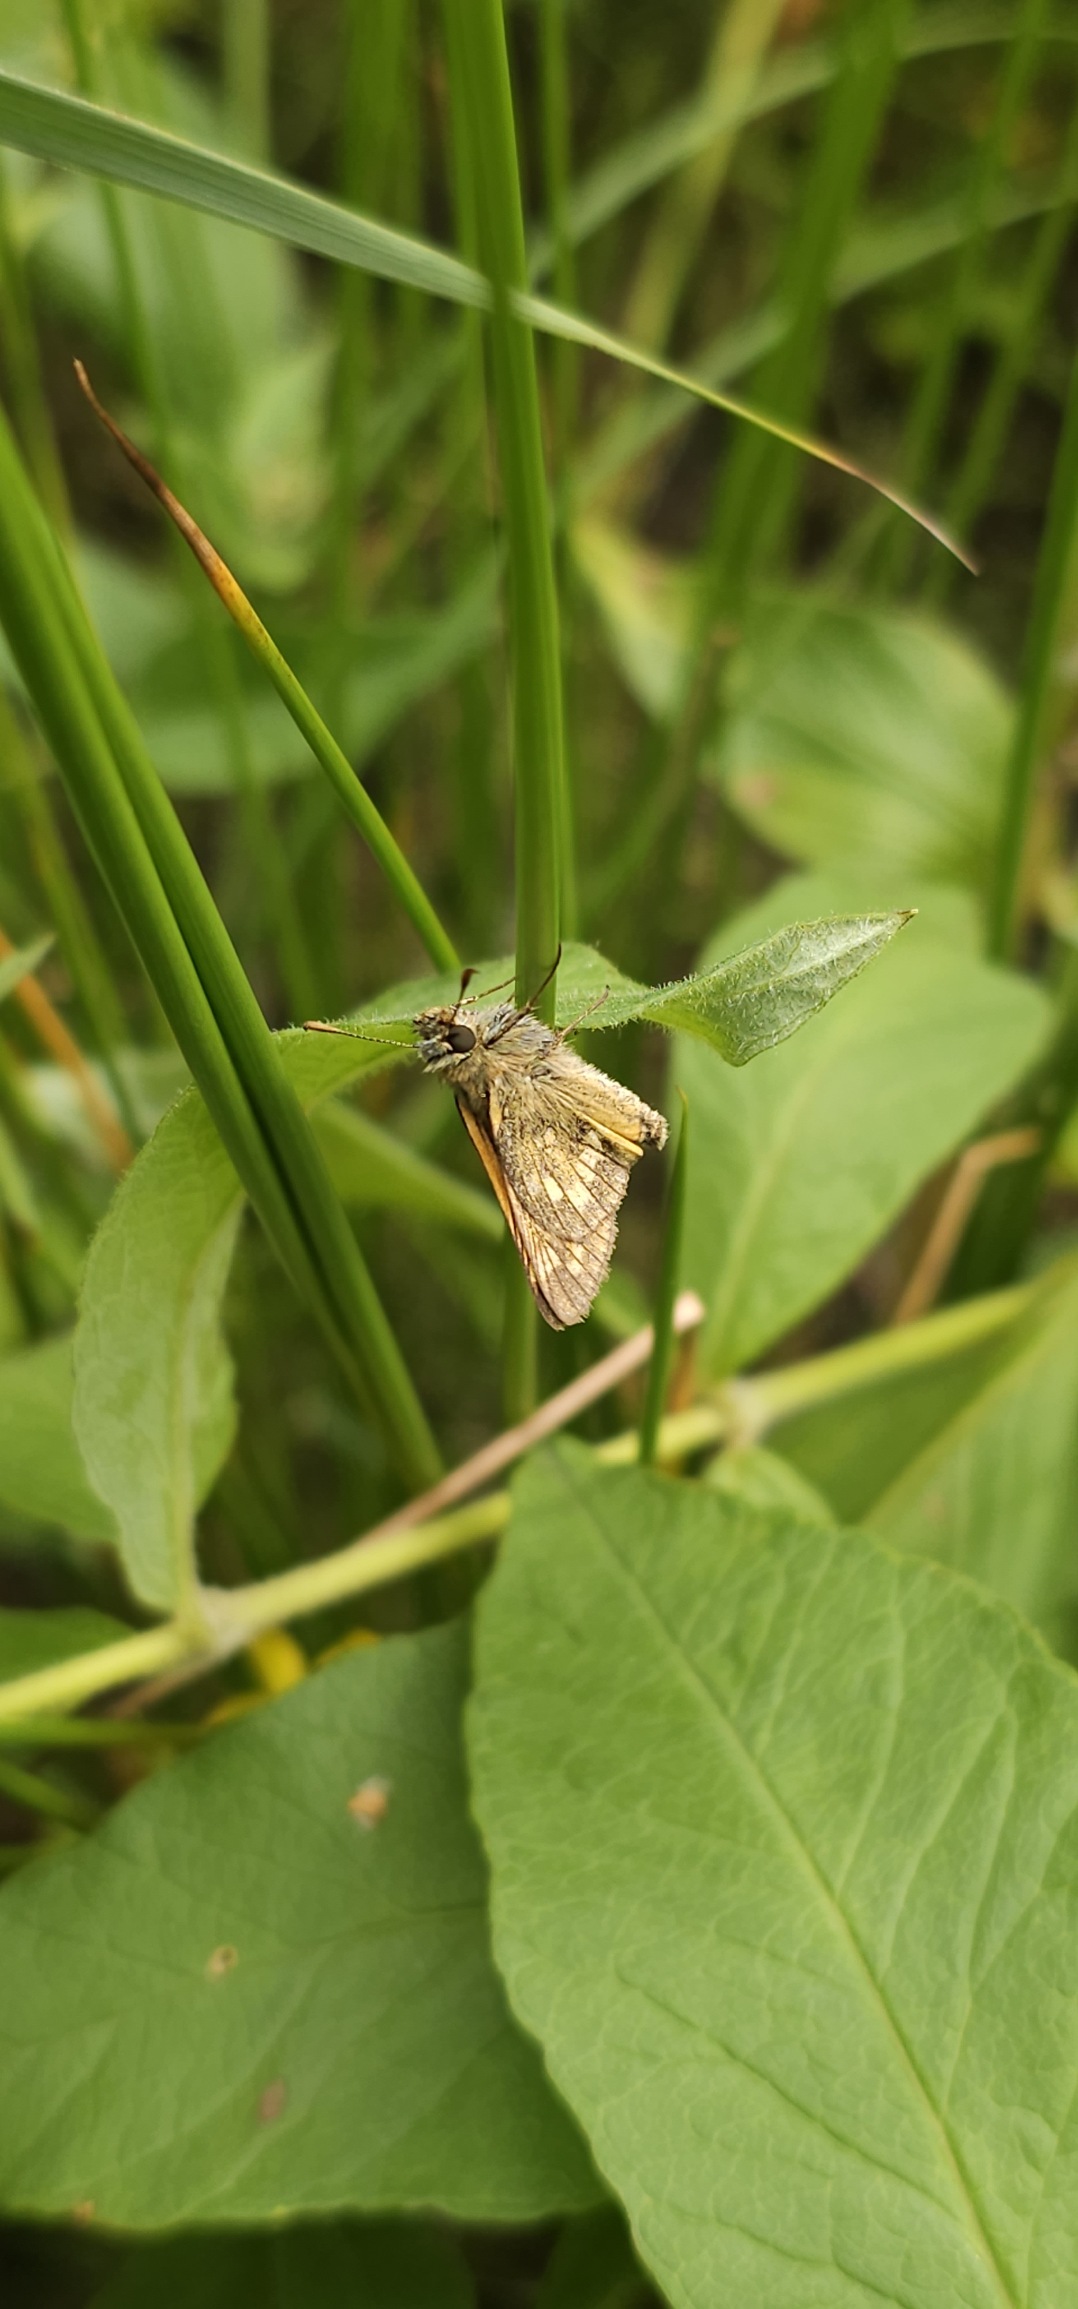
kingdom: Animalia
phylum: Arthropoda
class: Insecta
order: Lepidoptera
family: Hesperiidae
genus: Ochlodes
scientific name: Ochlodes venata
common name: Stor bredpande
